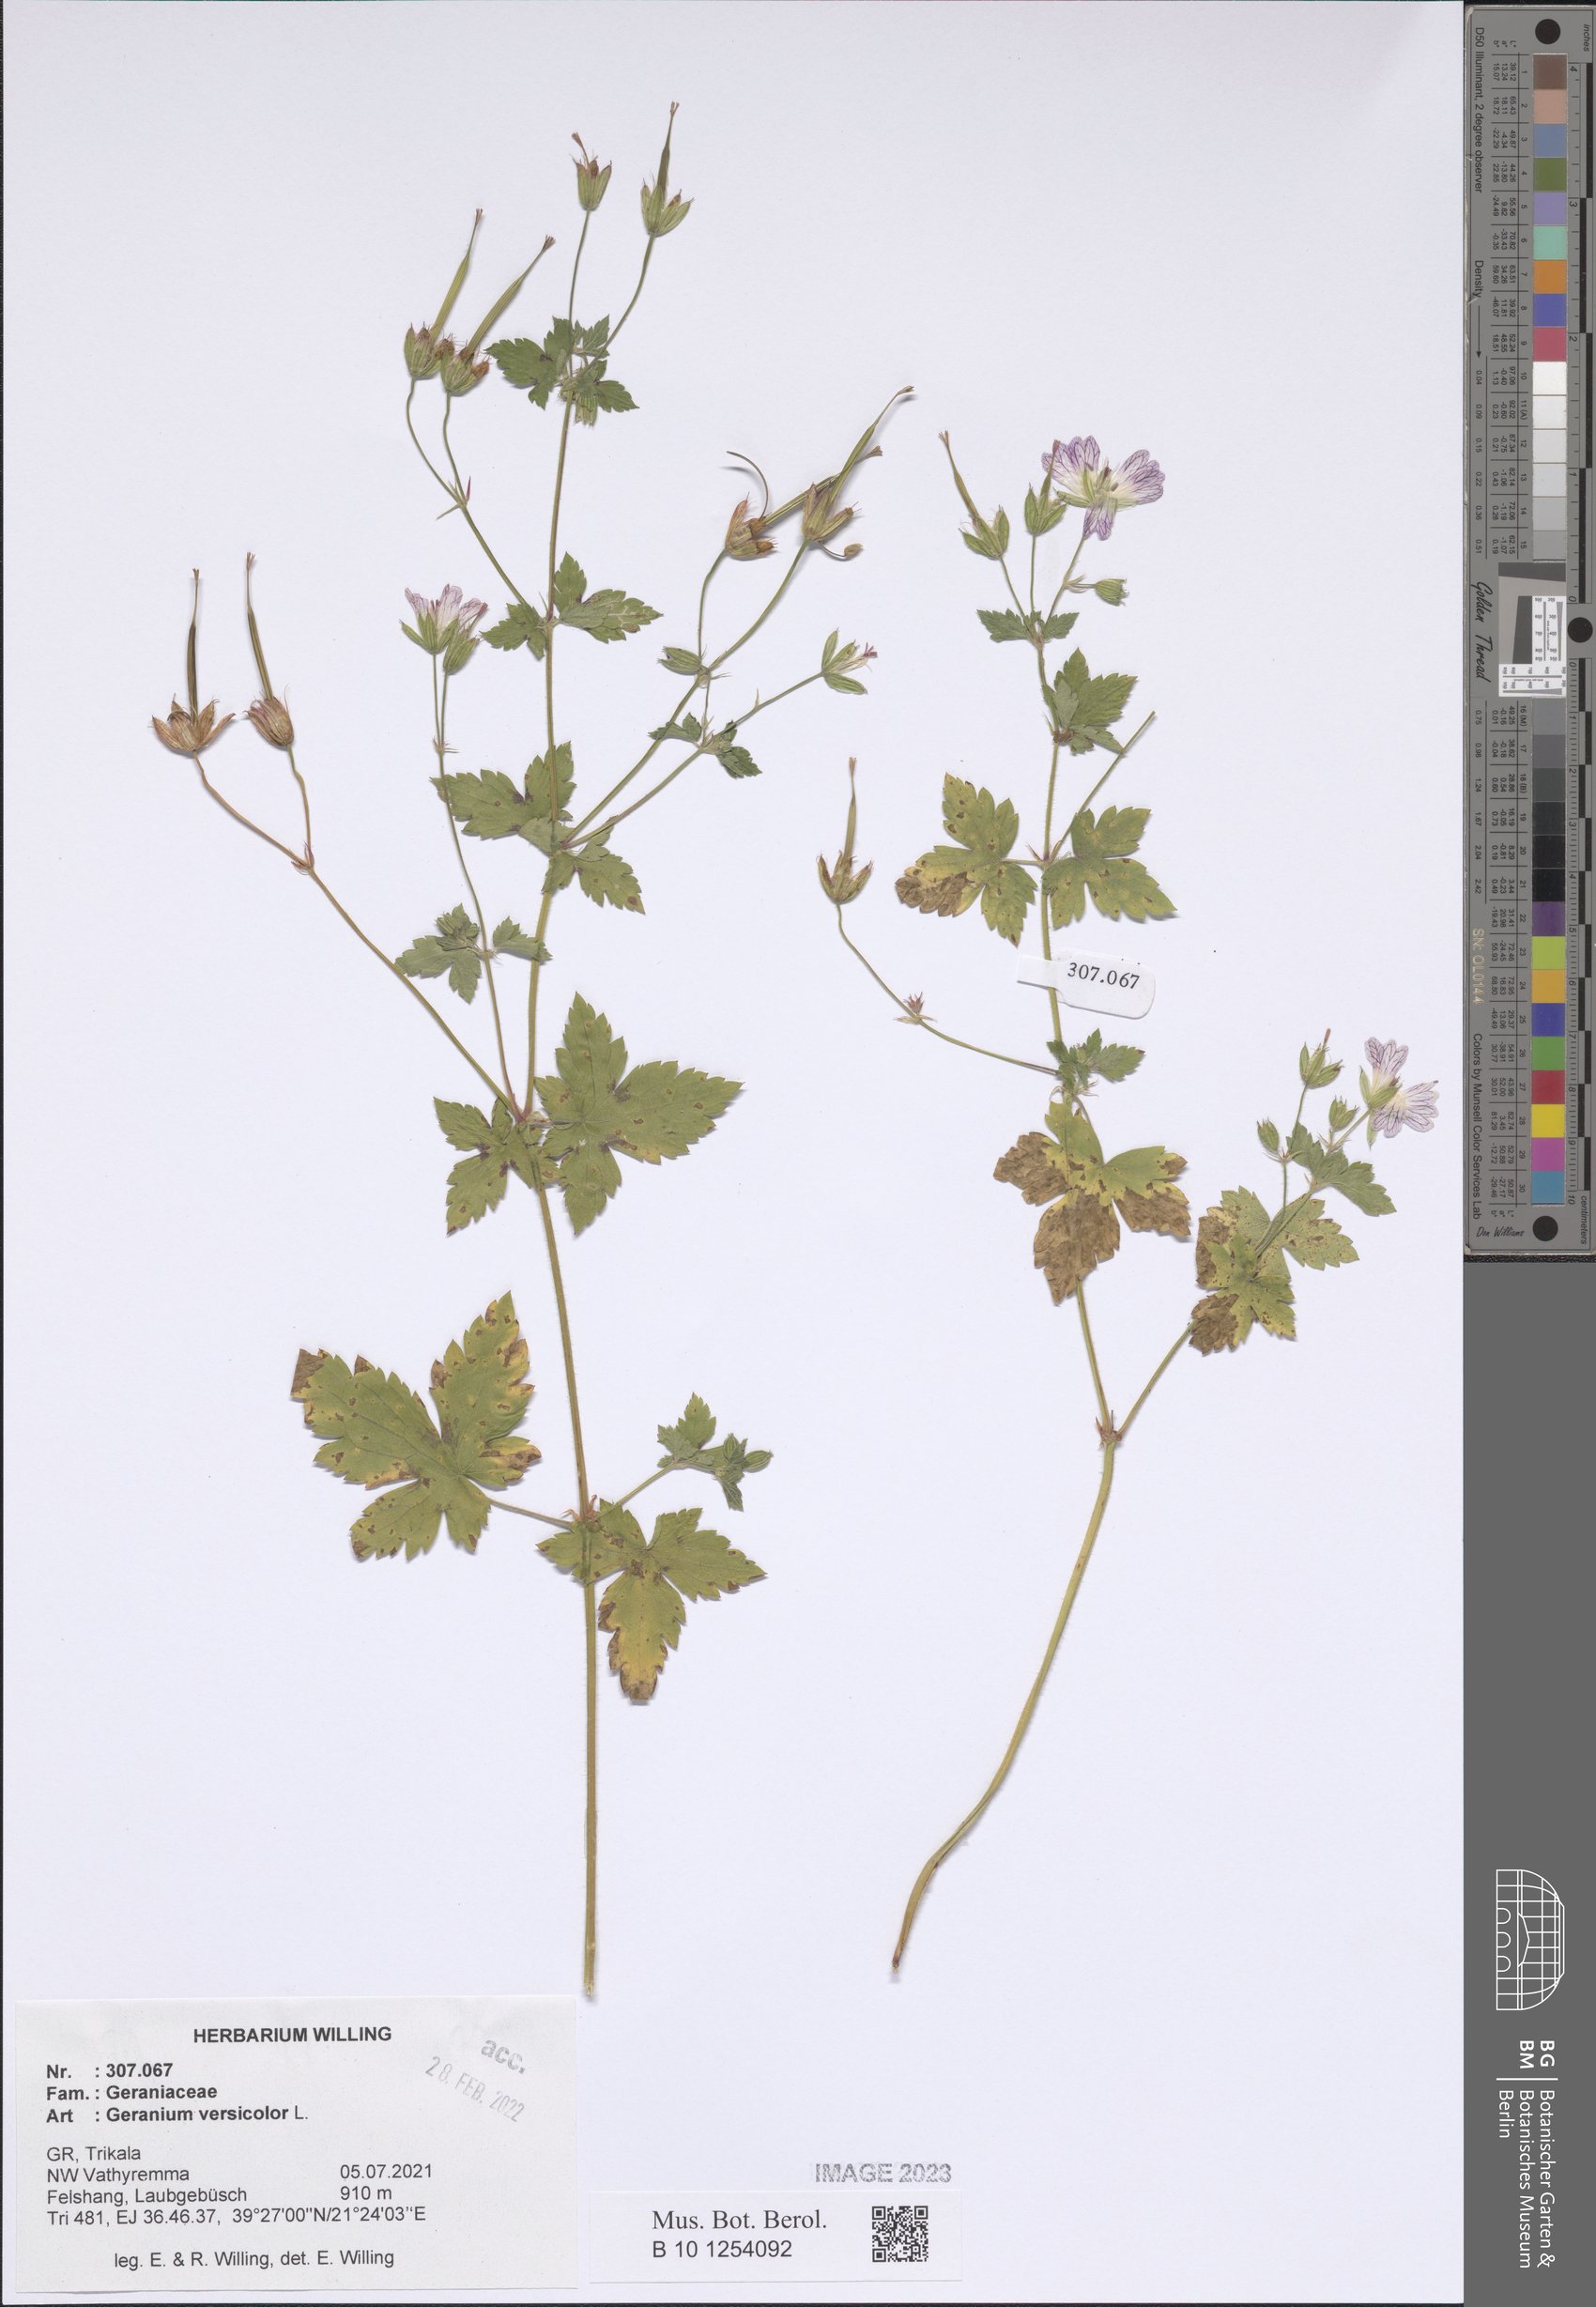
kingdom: Plantae
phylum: Tracheophyta
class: Magnoliopsida
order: Geraniales
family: Geraniaceae
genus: Geranium
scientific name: Geranium versicolor
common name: Pencilled crane's-bill
